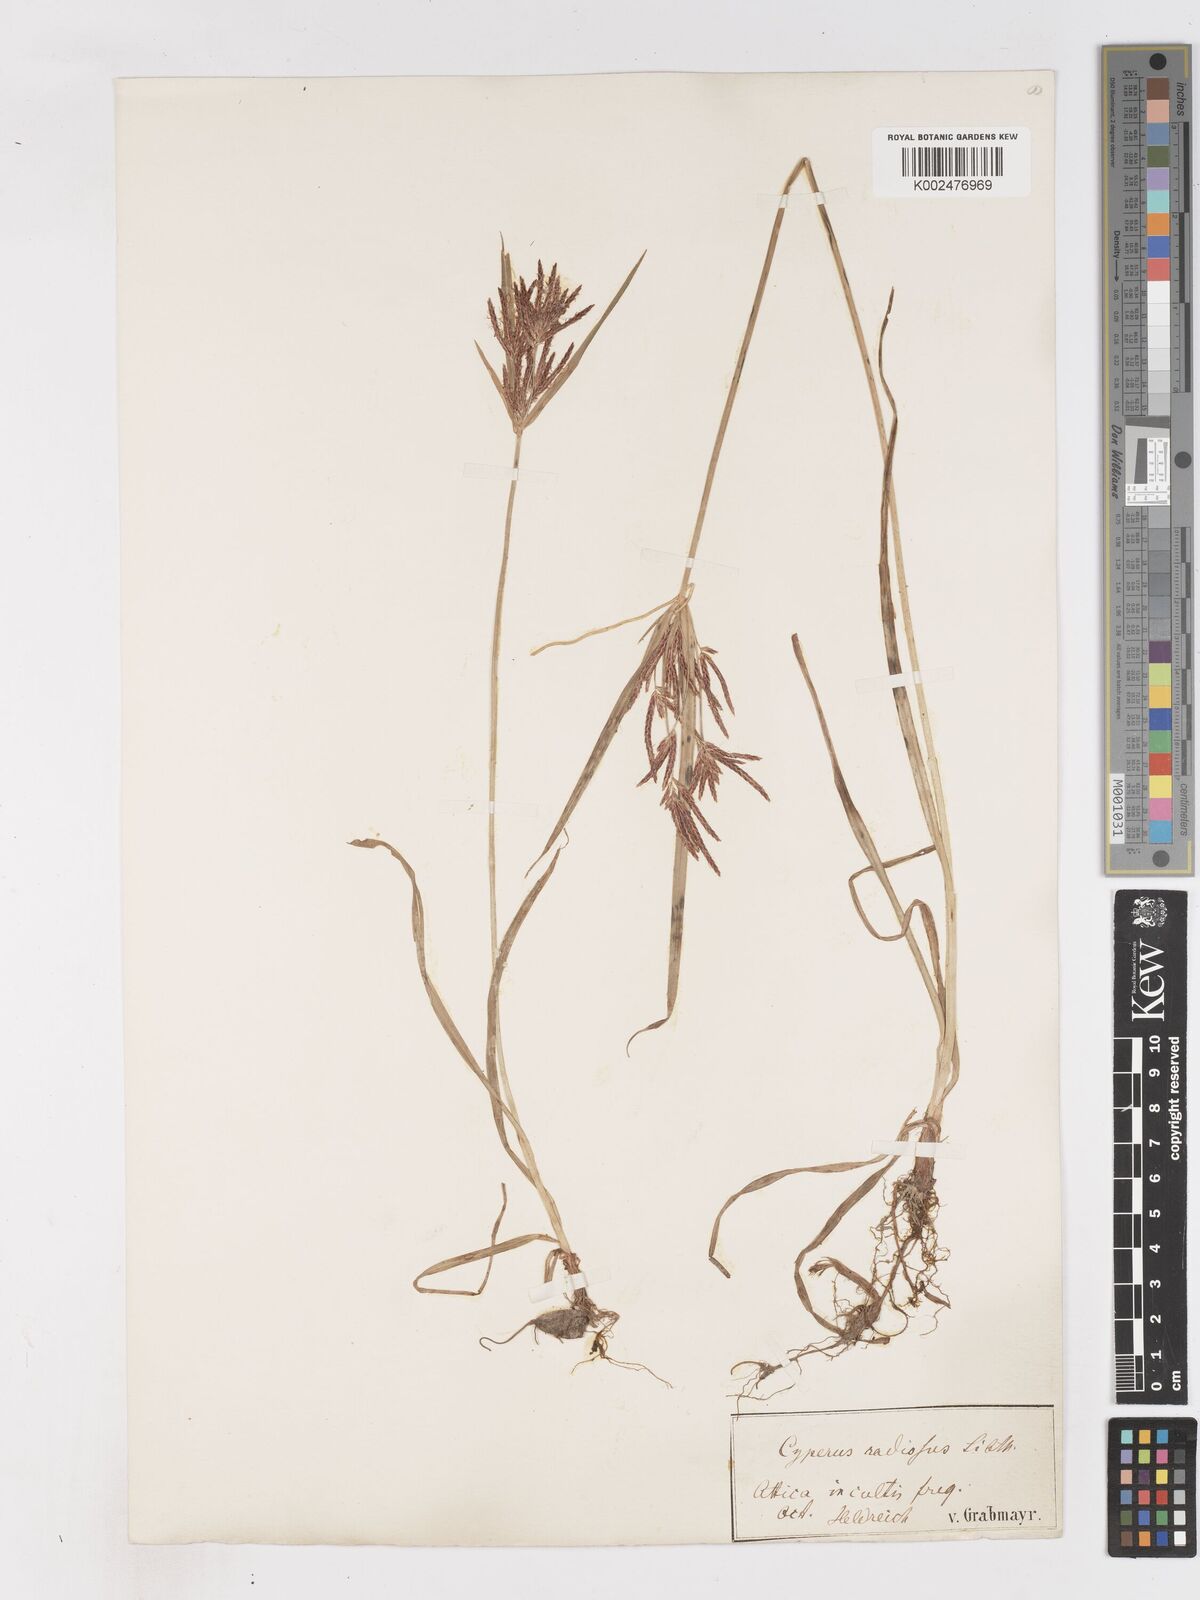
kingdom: Plantae
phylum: Tracheophyta
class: Liliopsida
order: Poales
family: Cyperaceae
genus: Cyperus
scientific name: Cyperus rotundus
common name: Nutgrass
